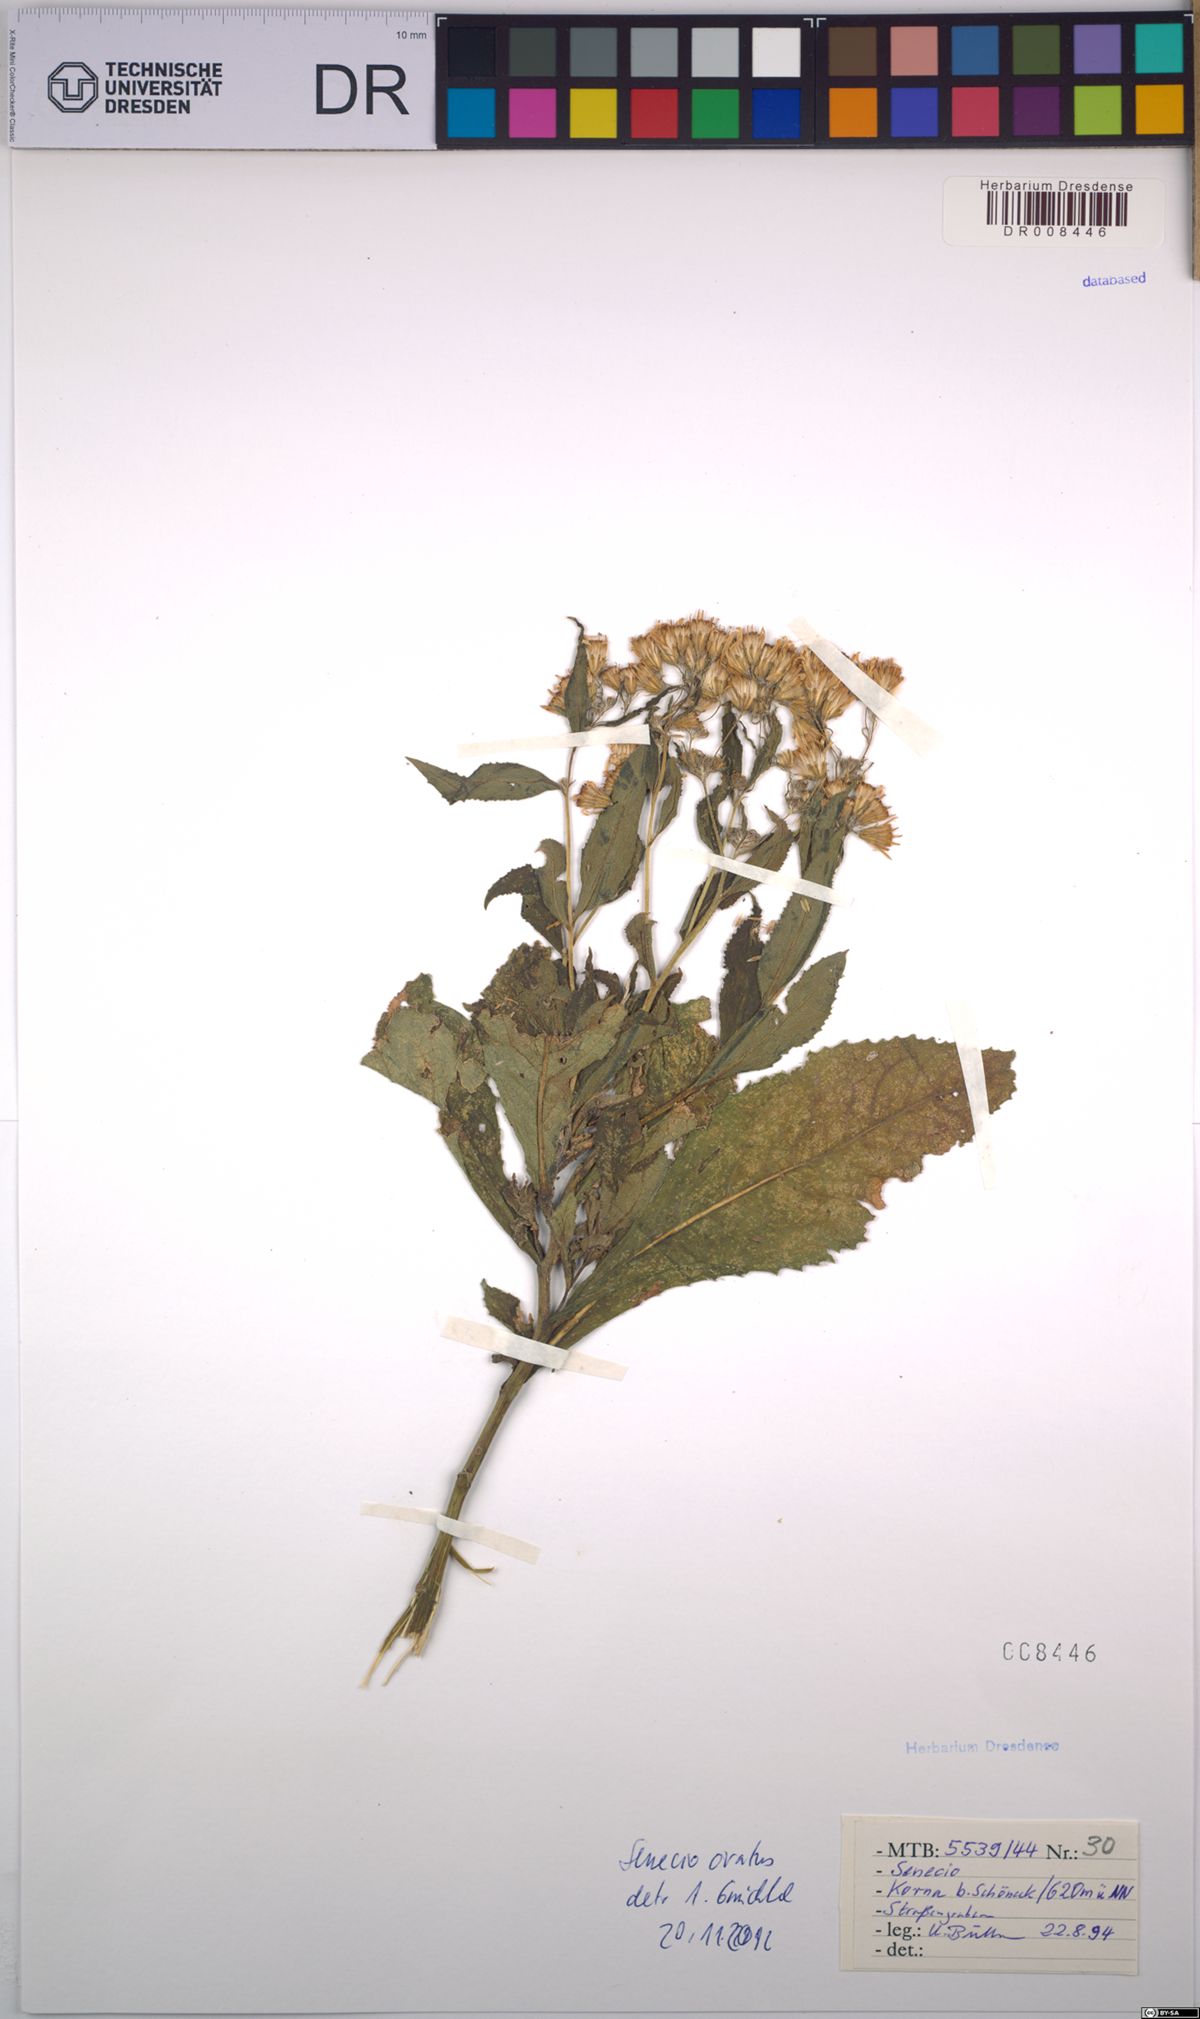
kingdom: Plantae
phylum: Tracheophyta
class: Magnoliopsida
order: Asterales
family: Asteraceae
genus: Senecio
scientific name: Senecio ovatus
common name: Wood ragwort
